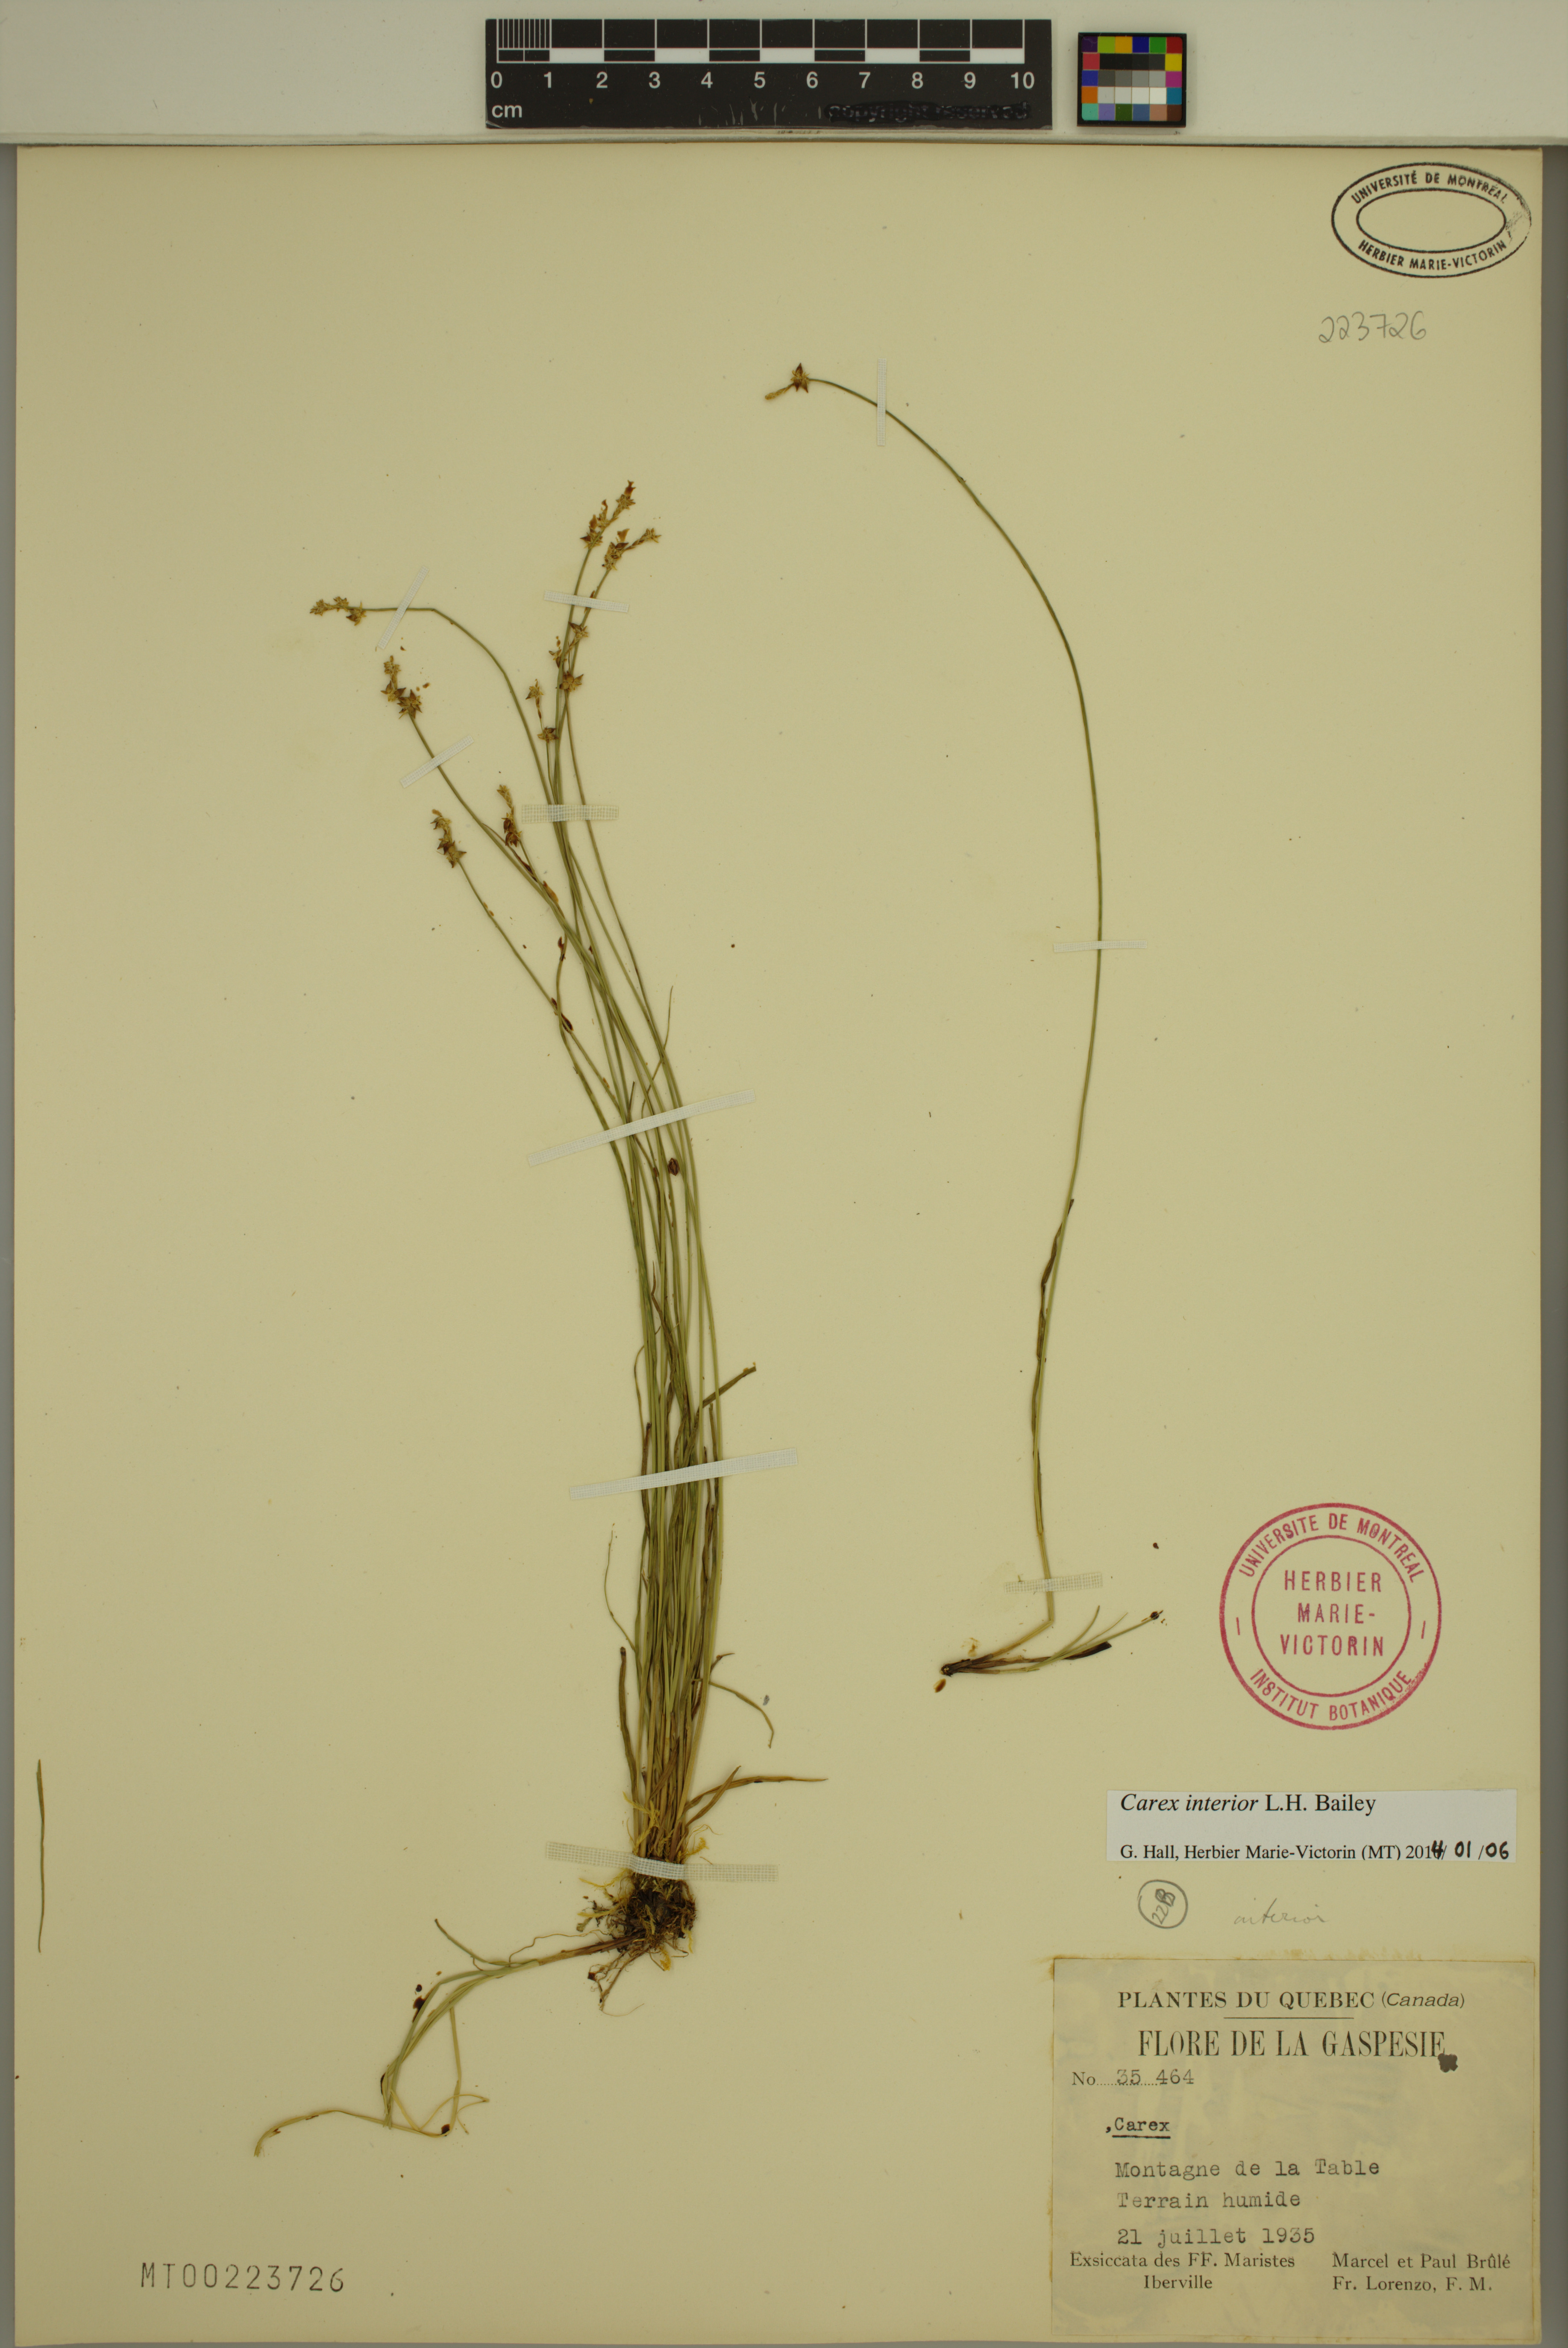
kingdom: Plantae
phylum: Tracheophyta
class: Liliopsida
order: Poales
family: Cyperaceae
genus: Carex
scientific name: Carex interior
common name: Inland sedge
